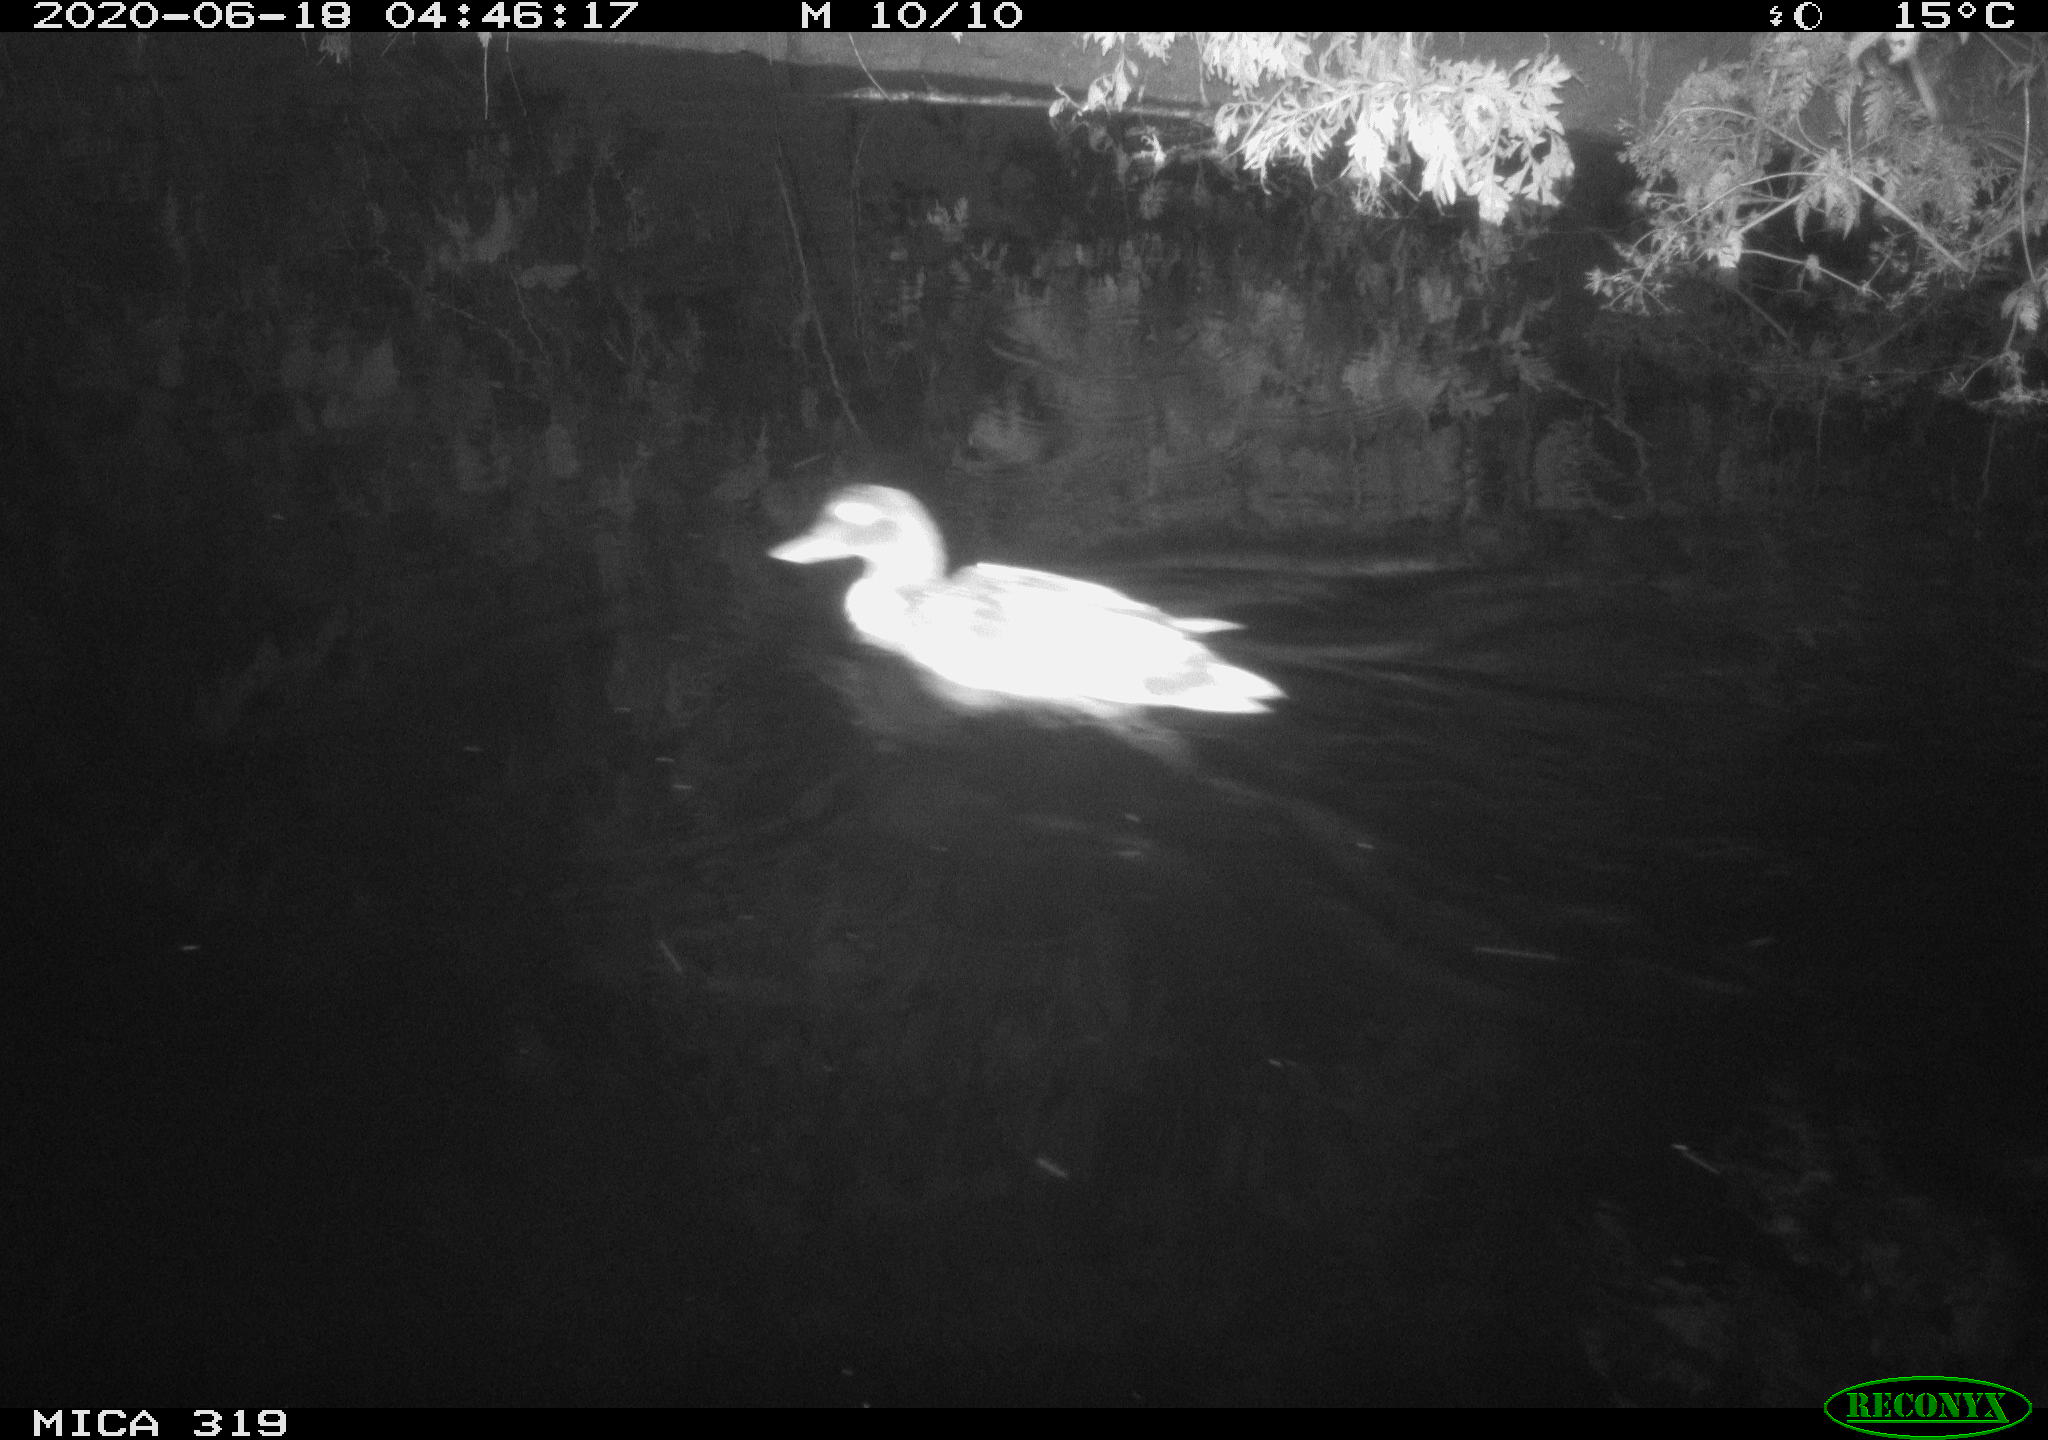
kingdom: Animalia
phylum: Chordata
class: Aves
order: Anseriformes
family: Anatidae
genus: Anas
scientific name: Anas platyrhynchos
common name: Mallard
